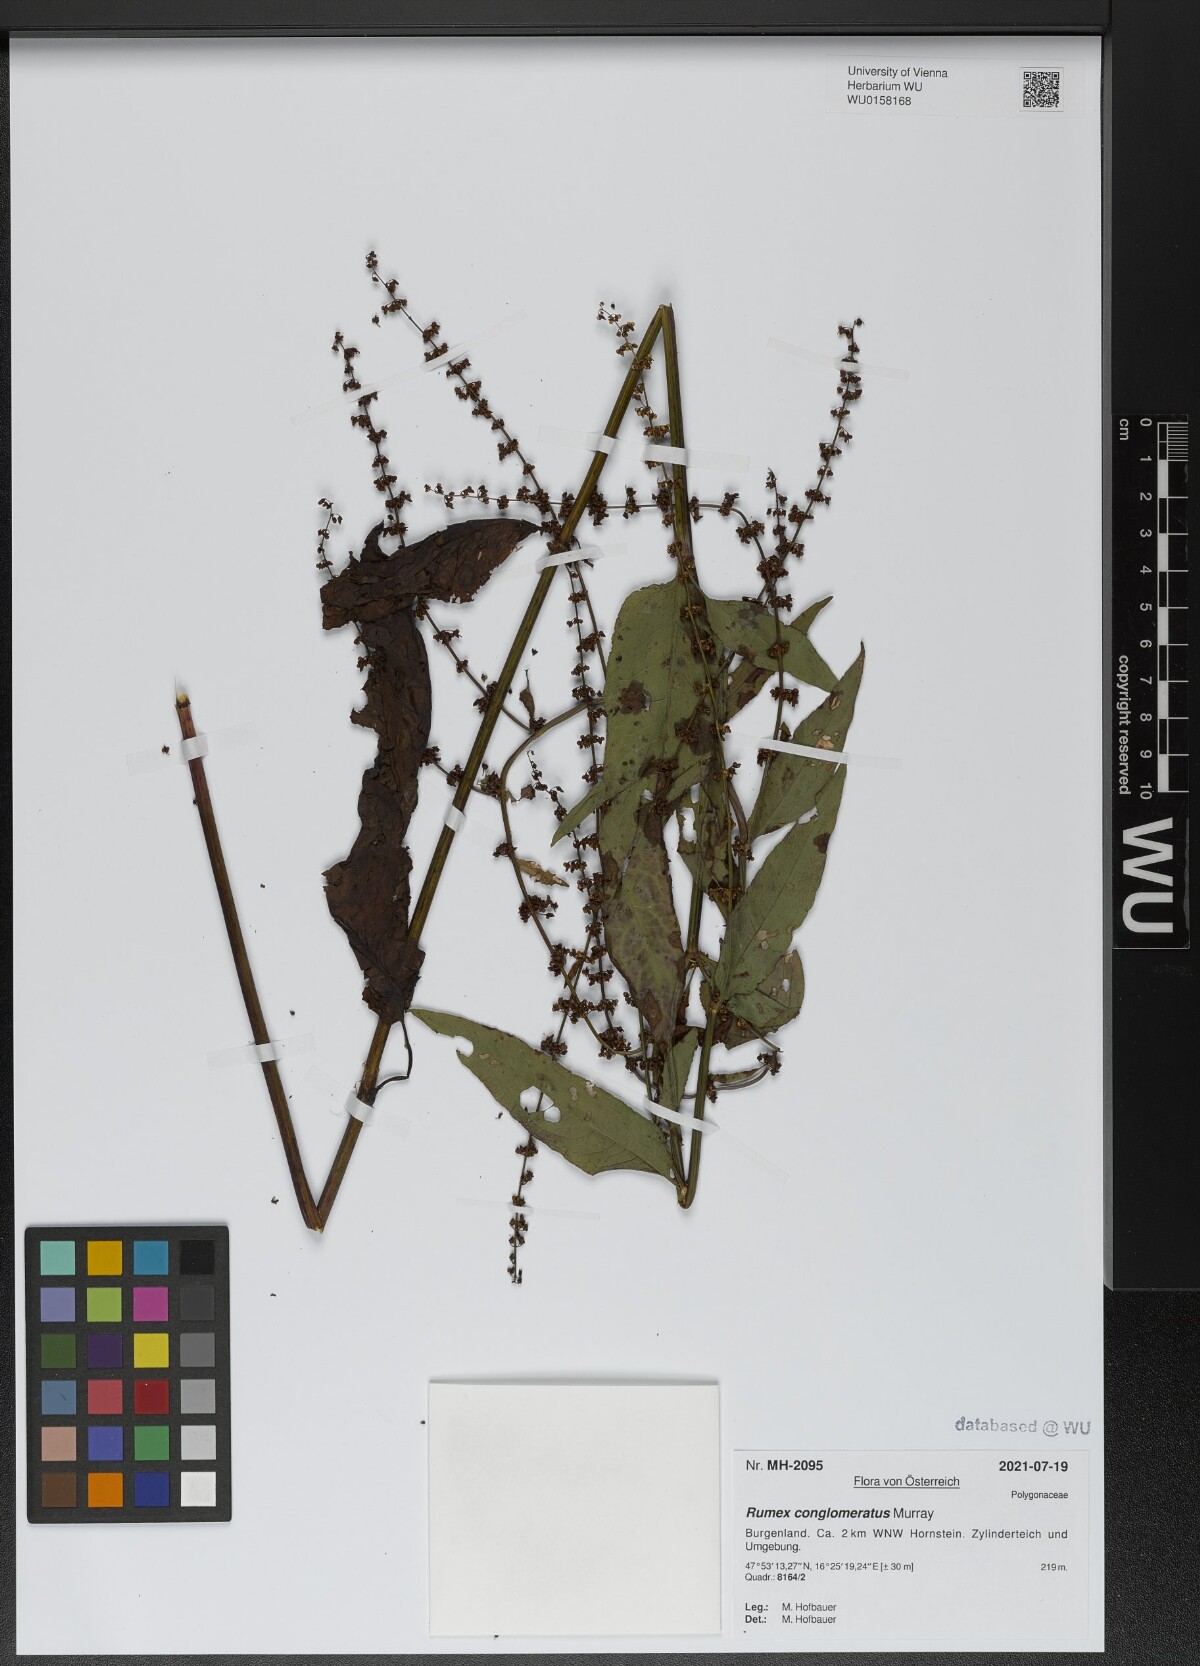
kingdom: Plantae
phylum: Tracheophyta
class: Magnoliopsida
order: Caryophyllales
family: Polygonaceae
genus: Rumex
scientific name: Rumex conglomeratus
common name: Clustered dock
